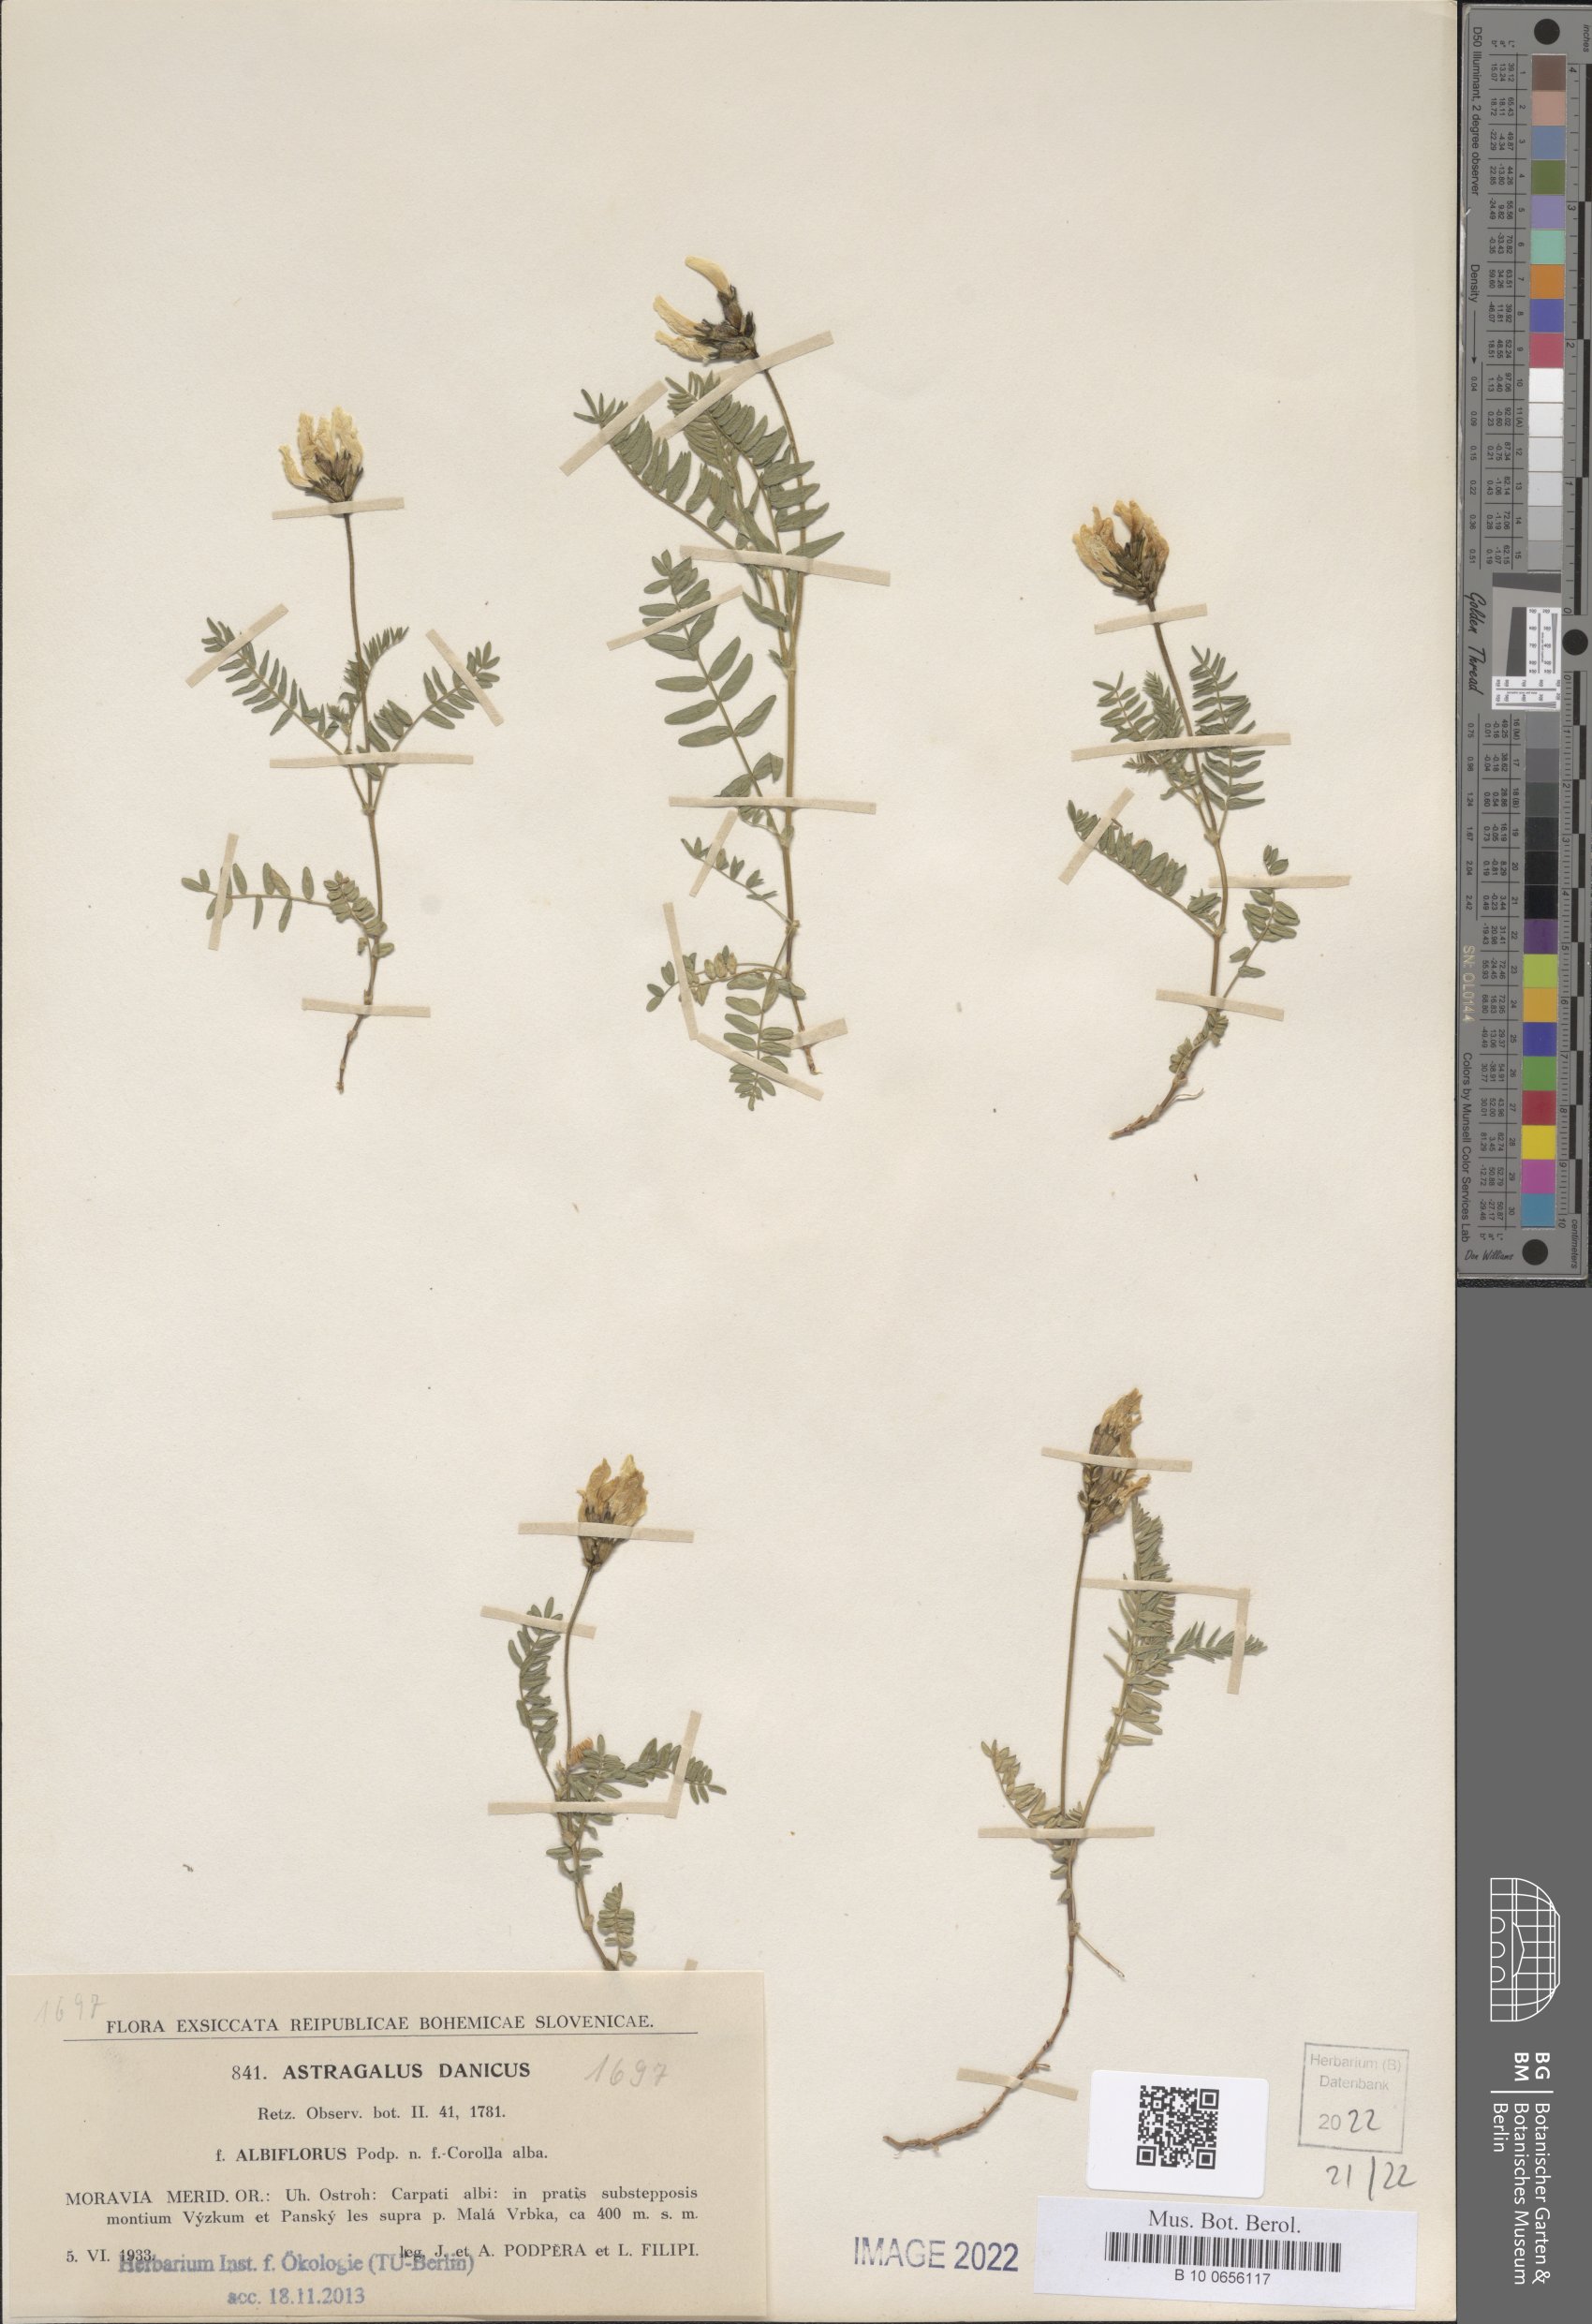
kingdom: Plantae
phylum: Tracheophyta
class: Magnoliopsida
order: Fabales
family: Fabaceae
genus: Astragalus
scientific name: Astragalus danicus
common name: Purple milk-vetch
